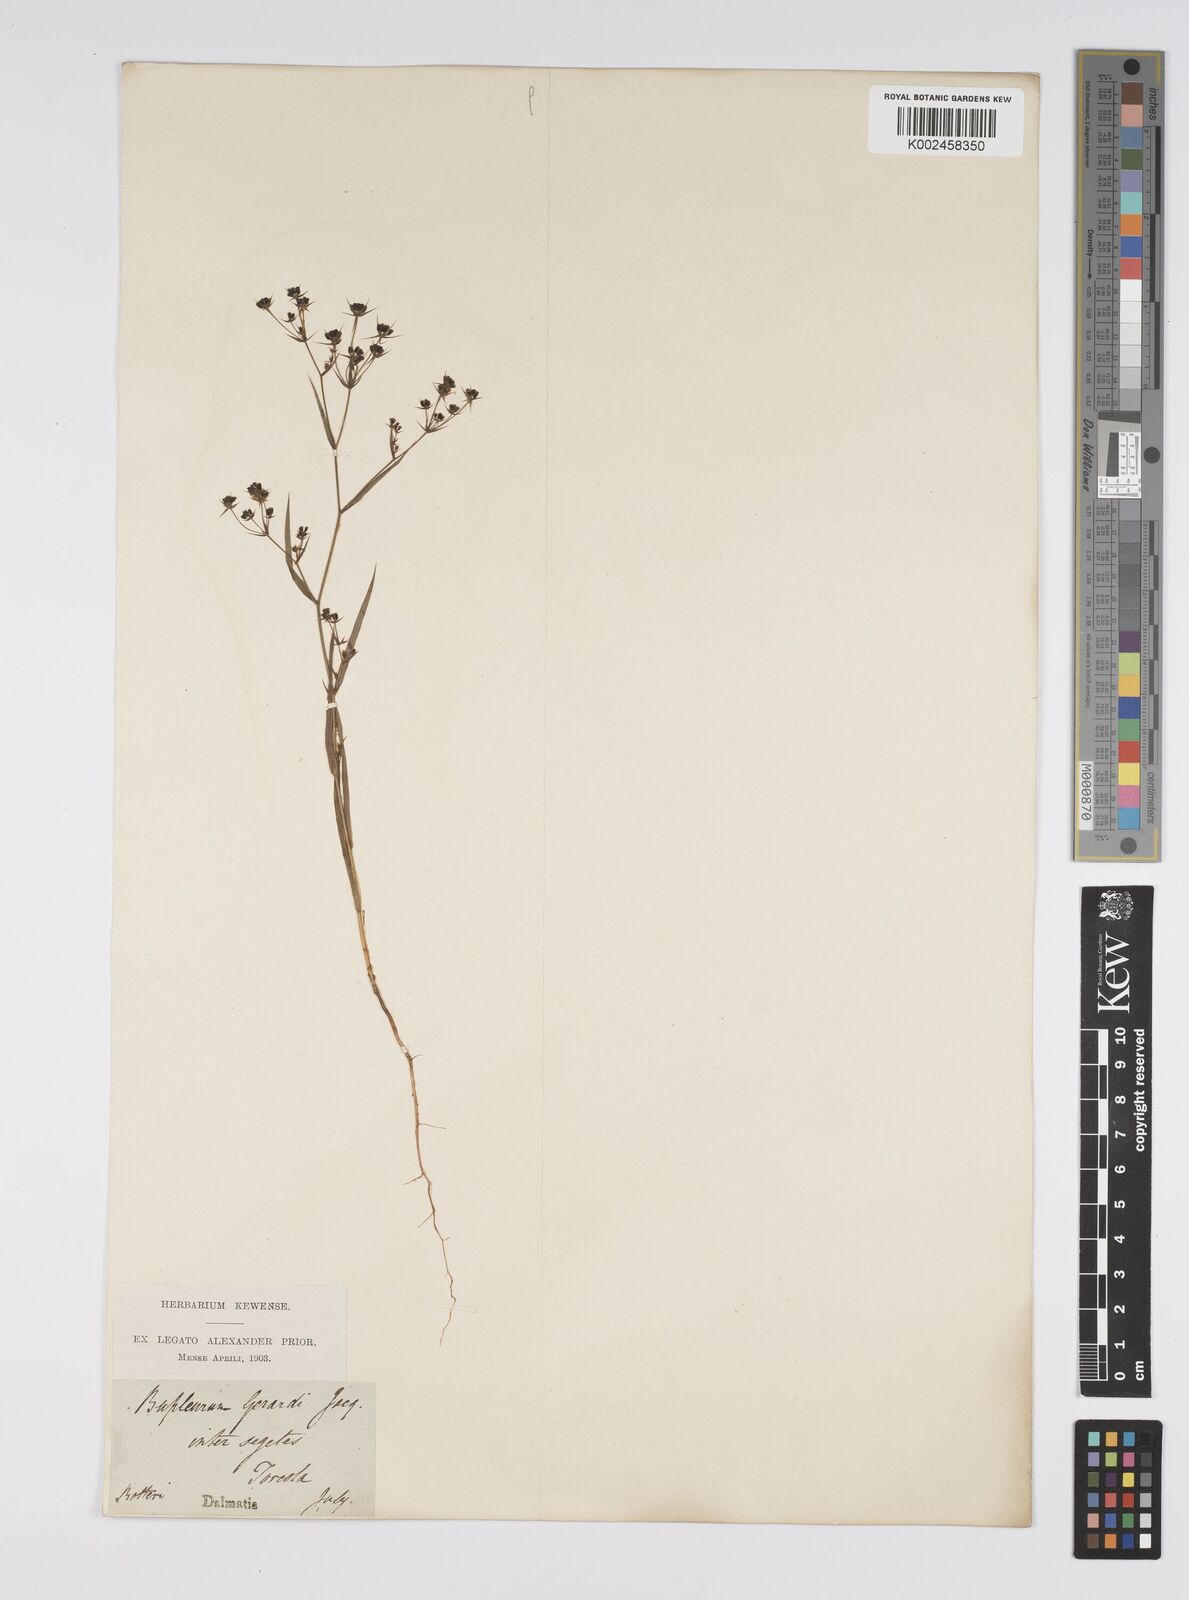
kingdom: Plantae
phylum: Tracheophyta
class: Magnoliopsida
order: Apiales
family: Apiaceae
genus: Bupleurum
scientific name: Bupleurum gerardi
